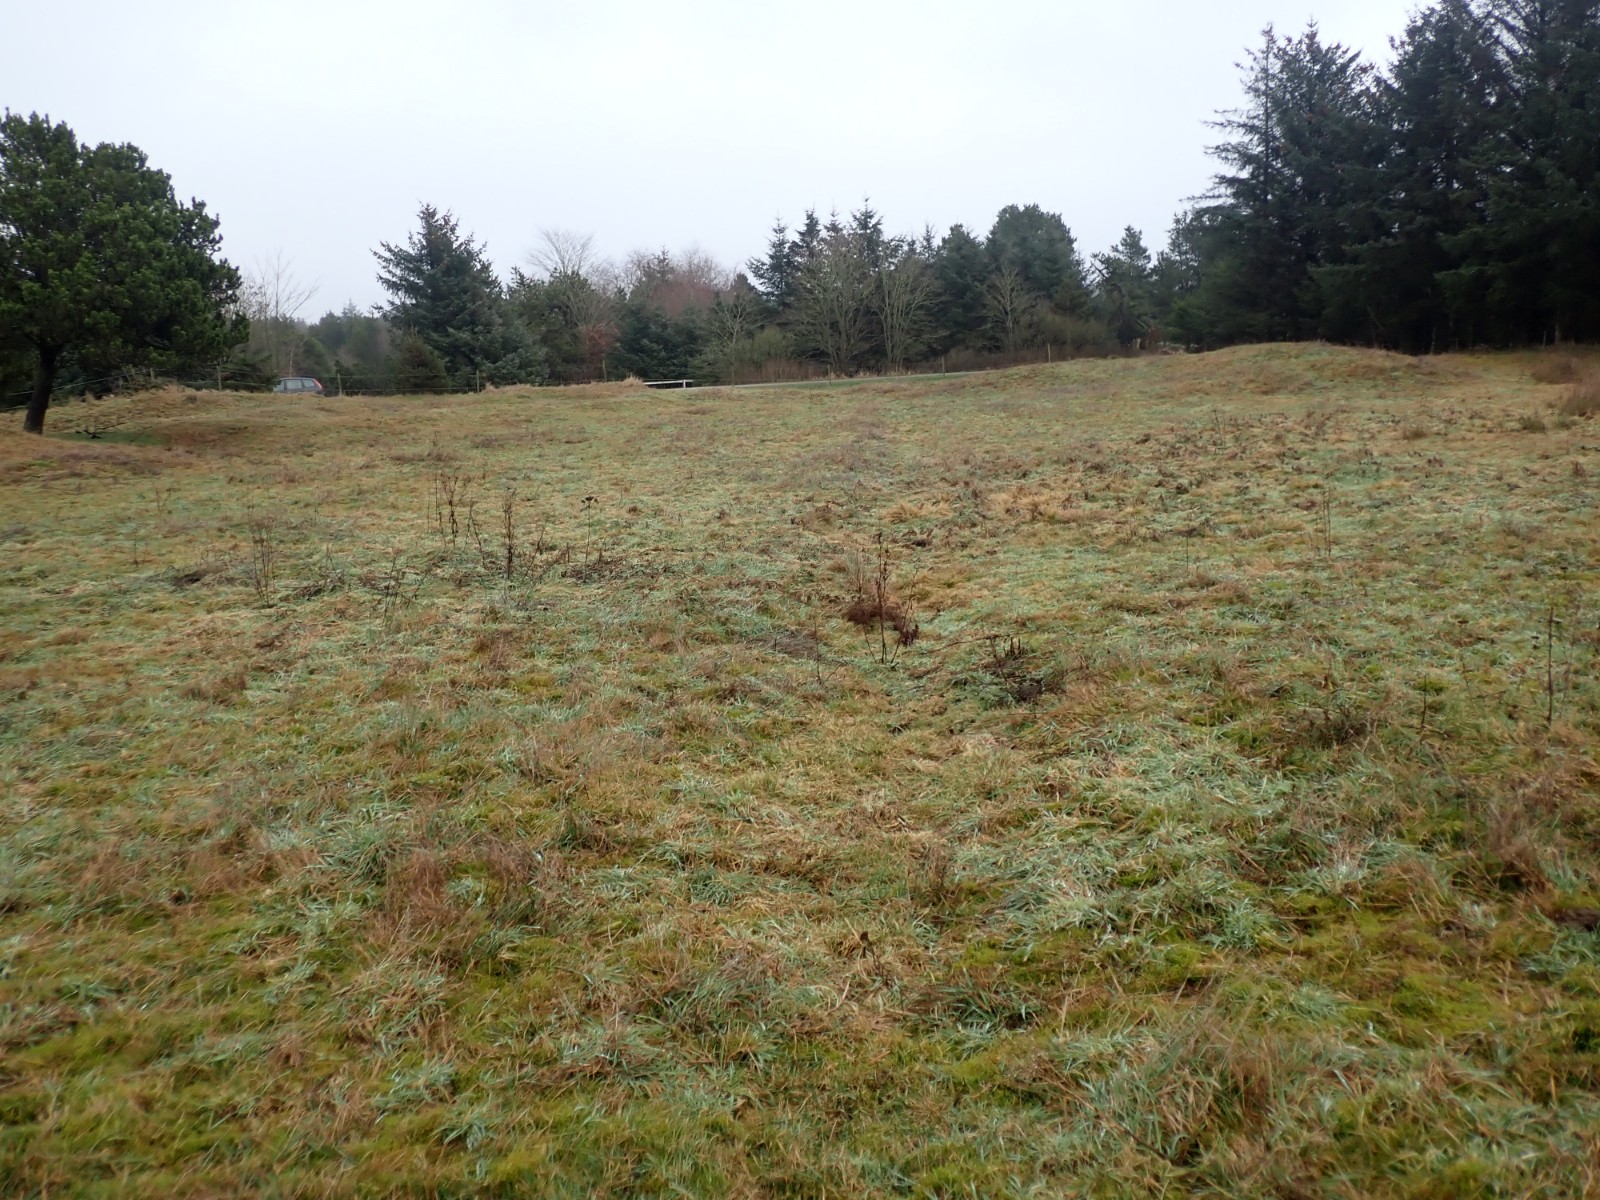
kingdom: Fungi
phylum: Basidiomycota
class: Agaricomycetes
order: Polyporales
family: Fomitopsidaceae
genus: Fomitopsis
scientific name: Fomitopsis betulina
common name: birkeporesvamp
